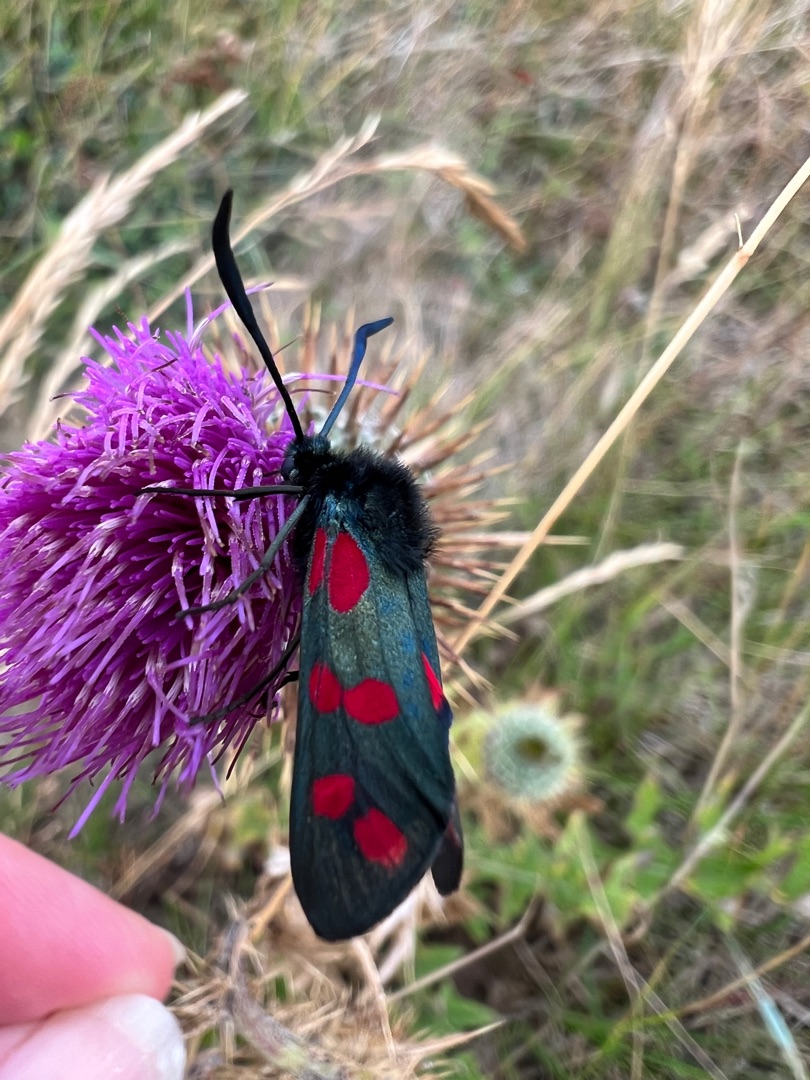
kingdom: Animalia
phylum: Arthropoda
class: Insecta
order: Lepidoptera
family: Zygaenidae
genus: Zygaena
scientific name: Zygaena filipendulae
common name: Seksplettet køllesværmer
